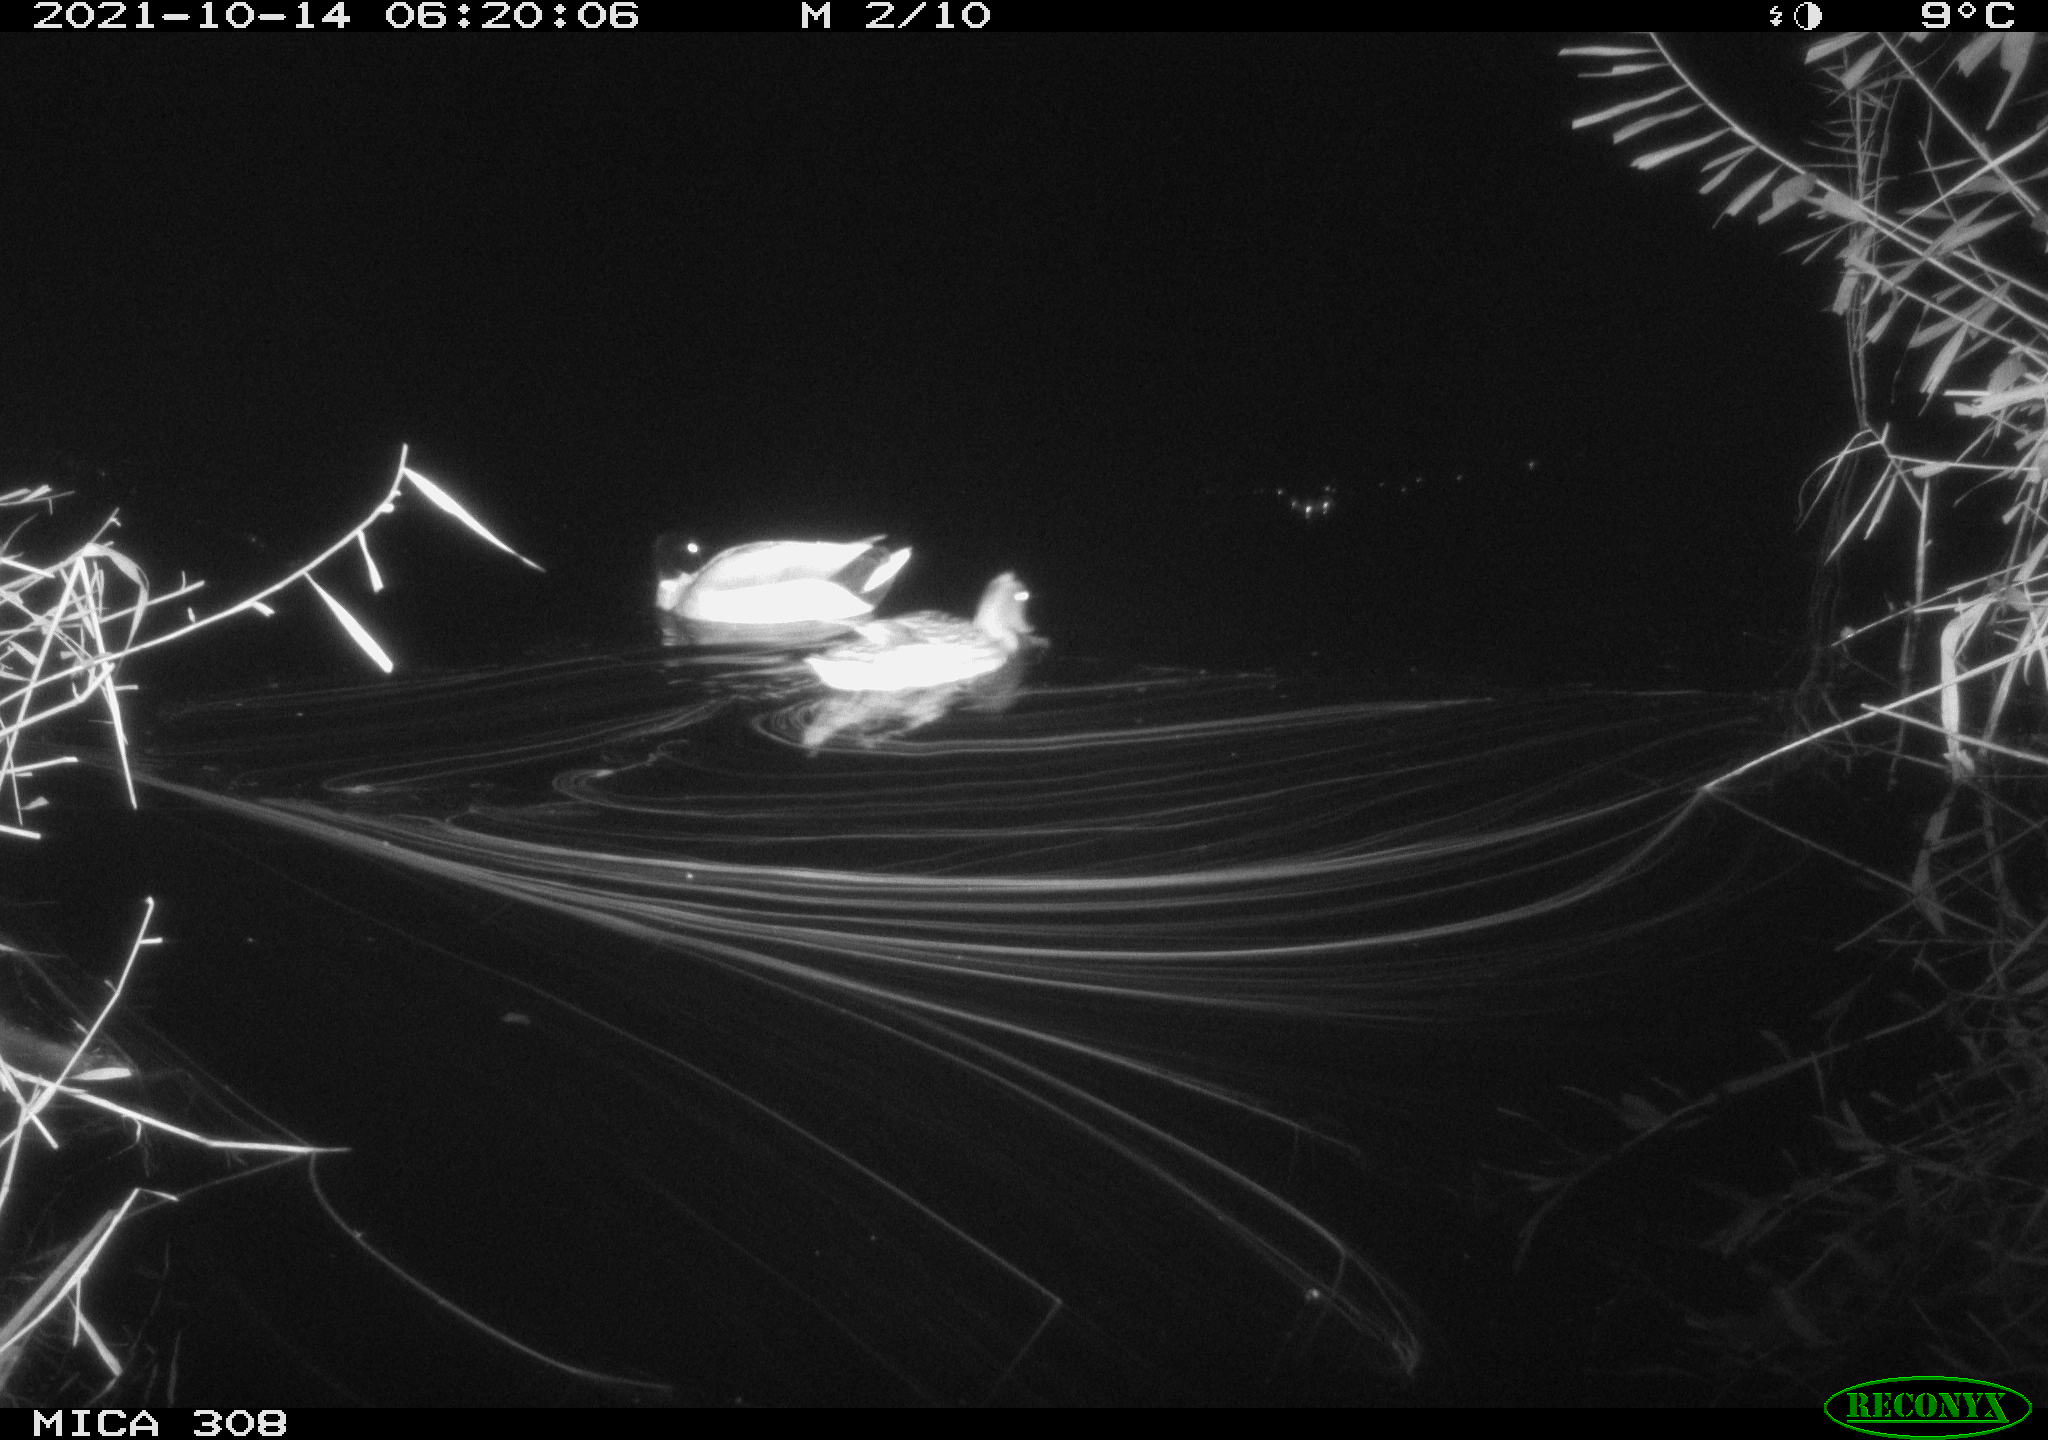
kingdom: Animalia
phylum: Chordata
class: Aves
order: Anseriformes
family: Anatidae
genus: Anas
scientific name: Anas platyrhynchos
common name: Mallard
